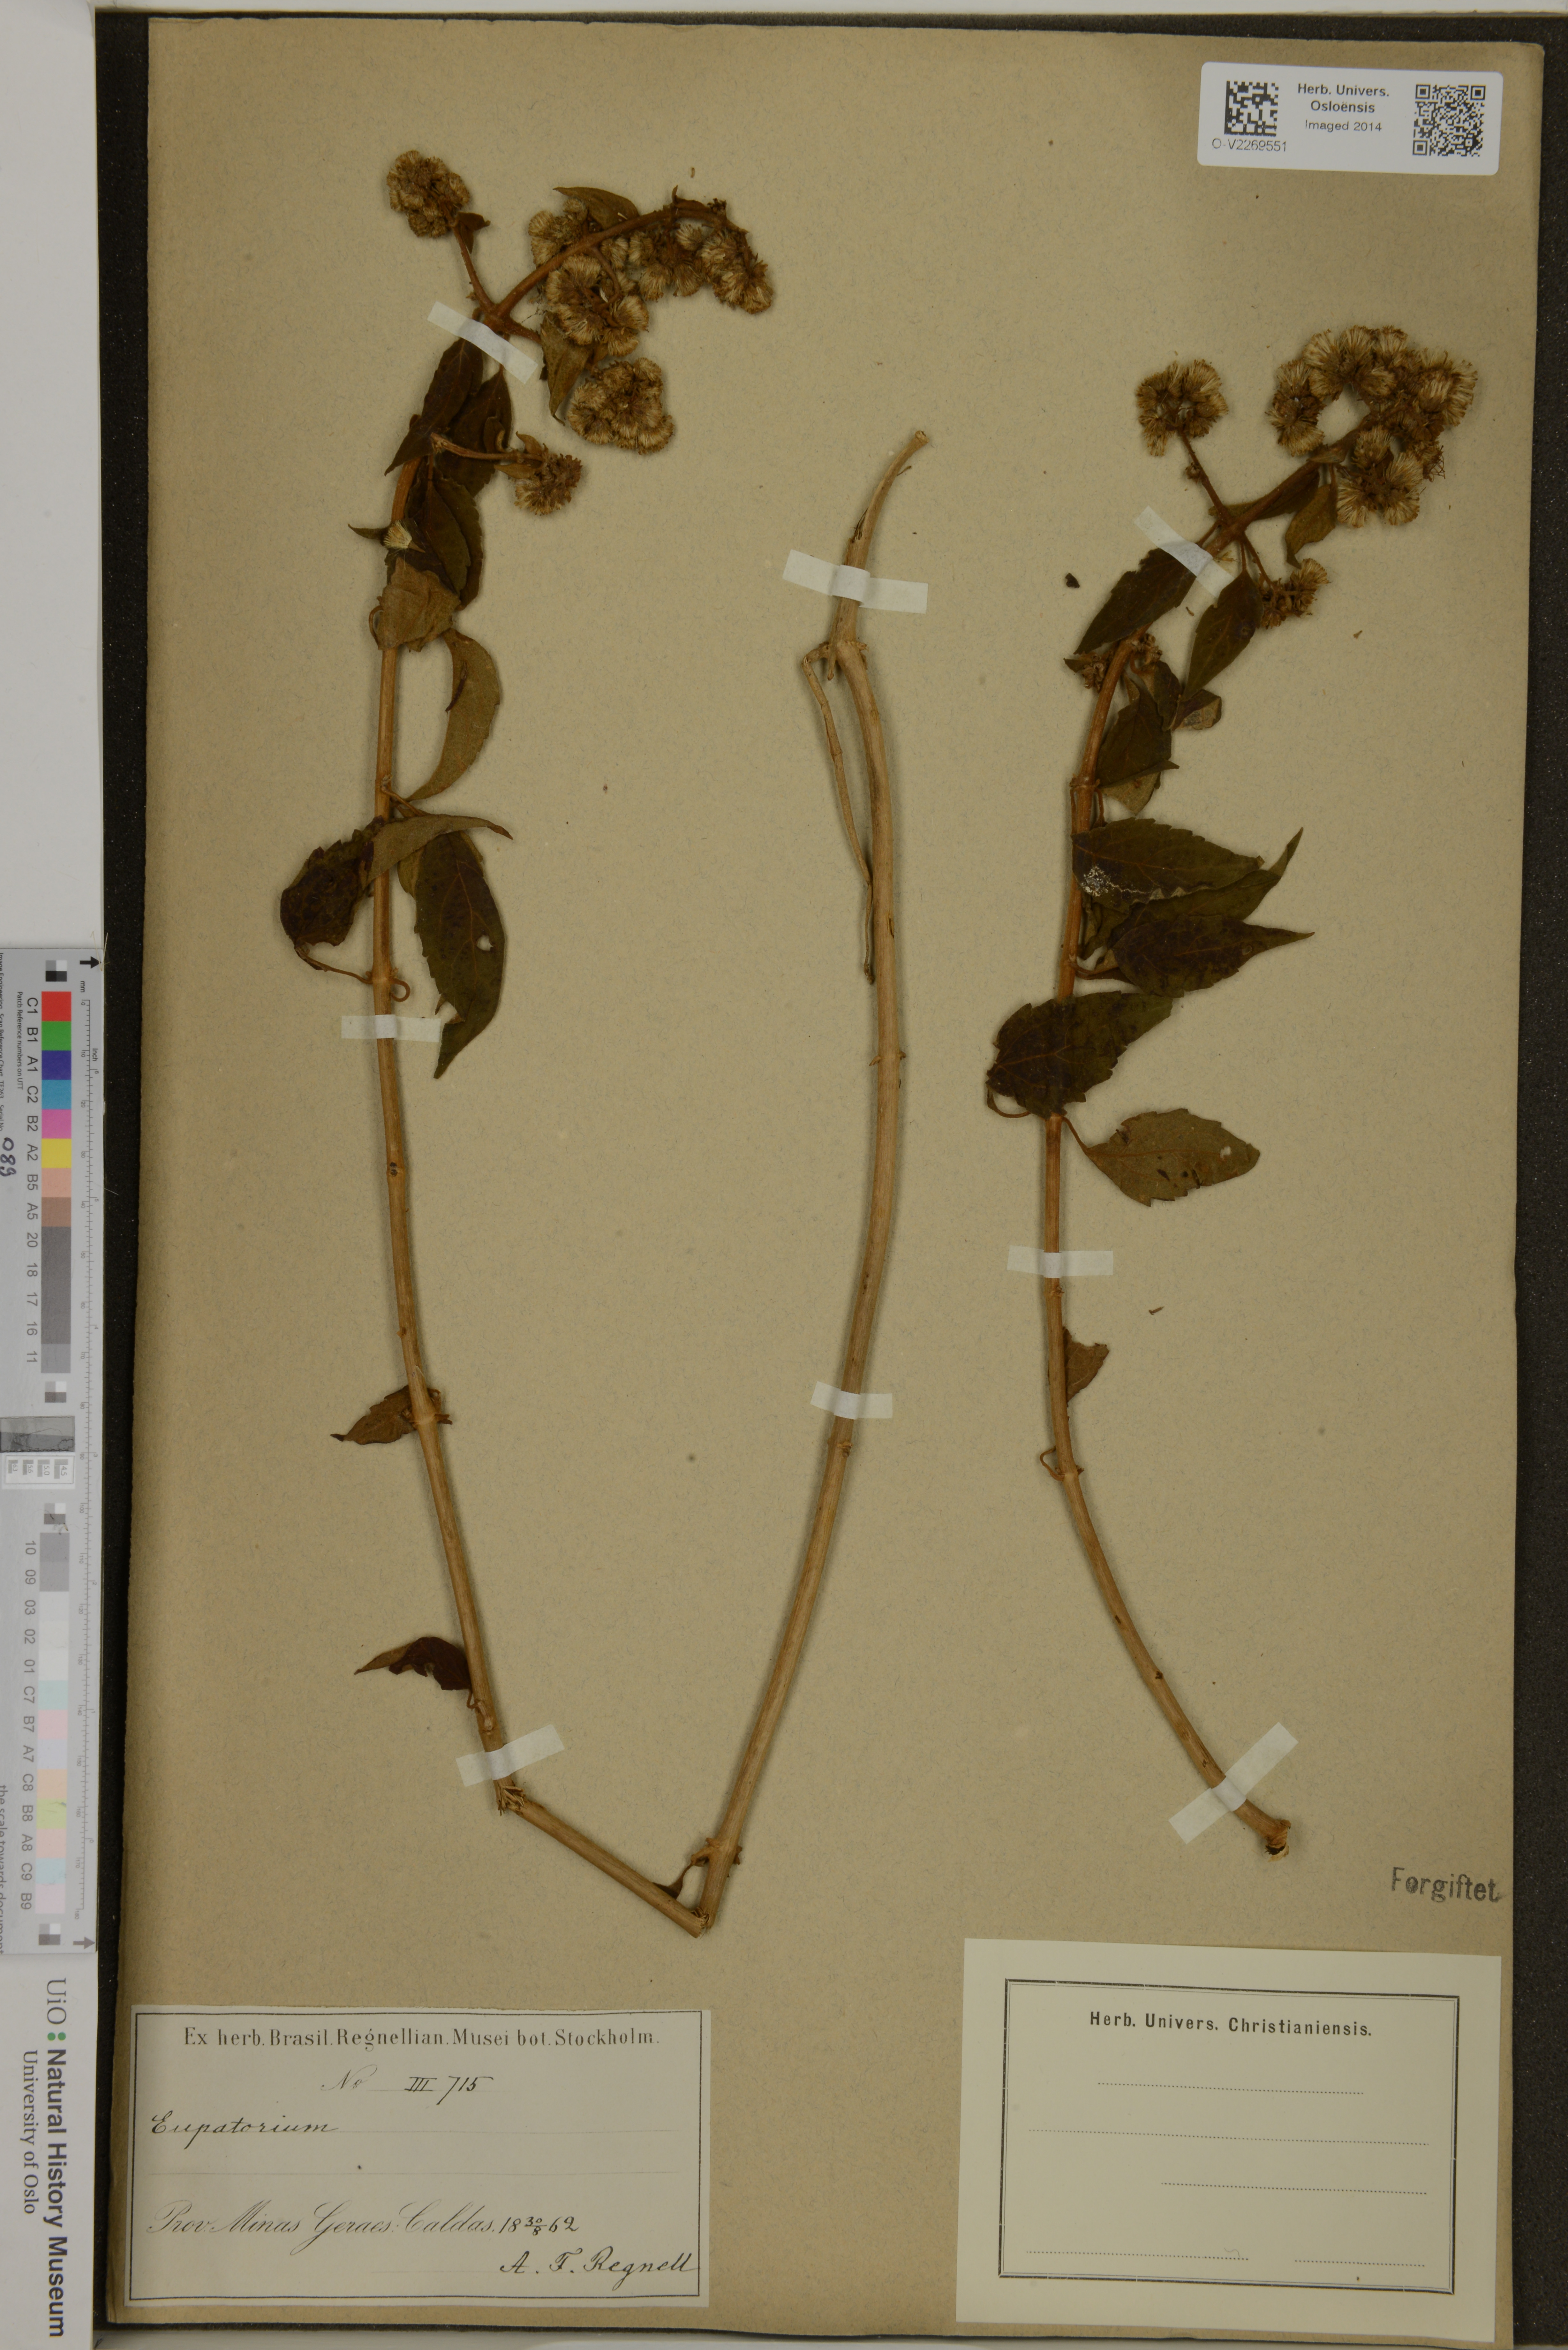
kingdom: Plantae
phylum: Tracheophyta
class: Magnoliopsida
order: Asterales
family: Asteraceae
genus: Eupatorium
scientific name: Eupatorium
